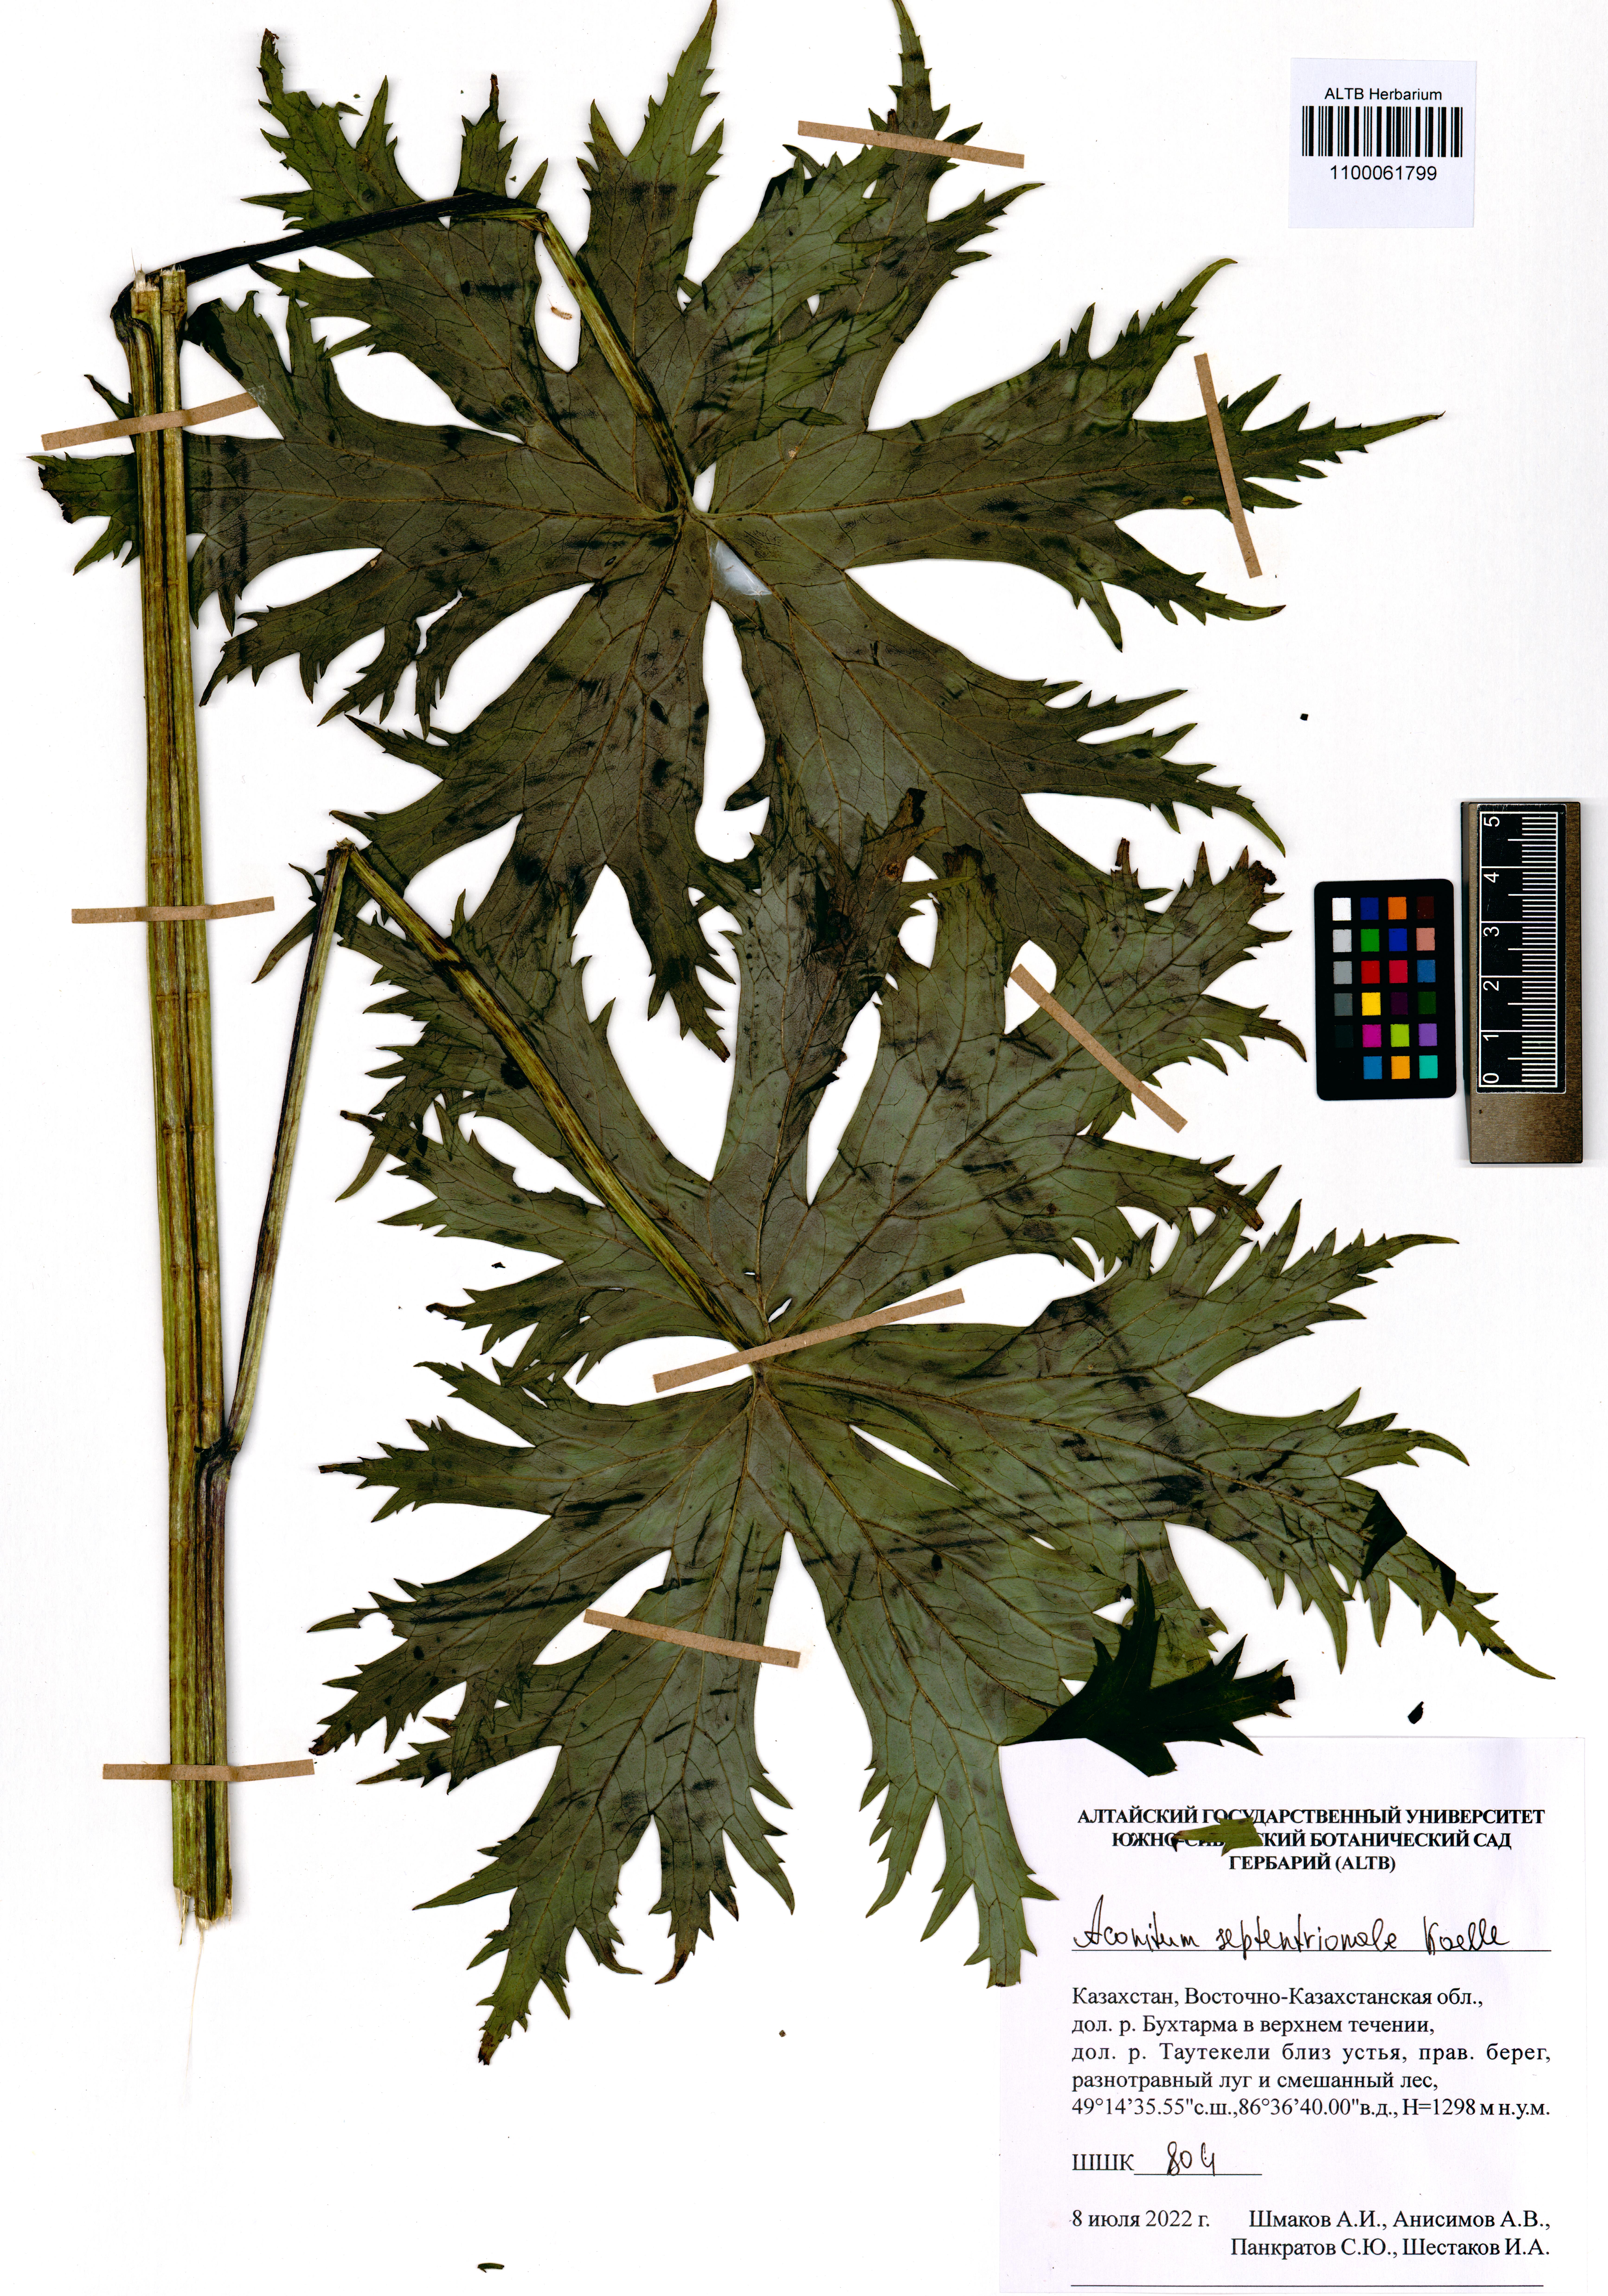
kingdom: Plantae
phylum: Tracheophyta
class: Magnoliopsida
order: Ranunculales
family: Ranunculaceae
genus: Aconitum
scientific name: Aconitum septentrionale
